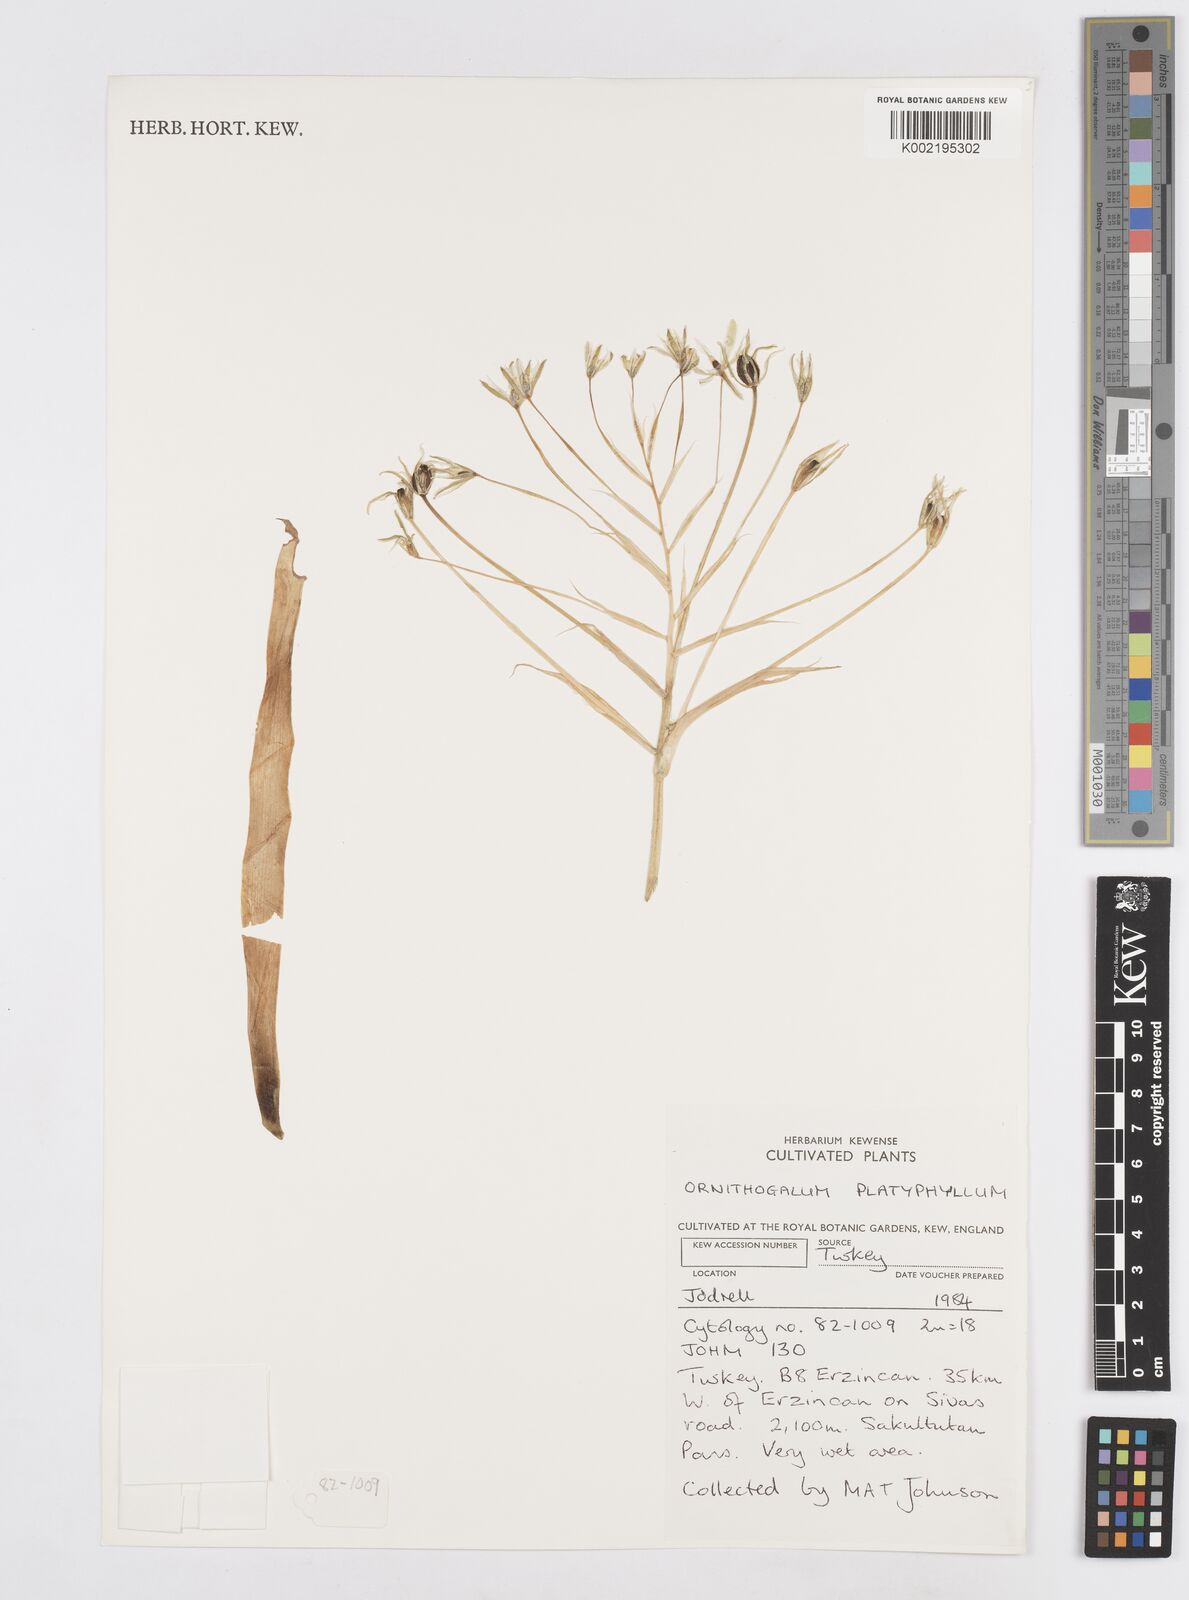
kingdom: Plantae
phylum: Tracheophyta
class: Liliopsida
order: Asparagales
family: Asparagaceae
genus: Ornithogalum
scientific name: Ornithogalum montanum
